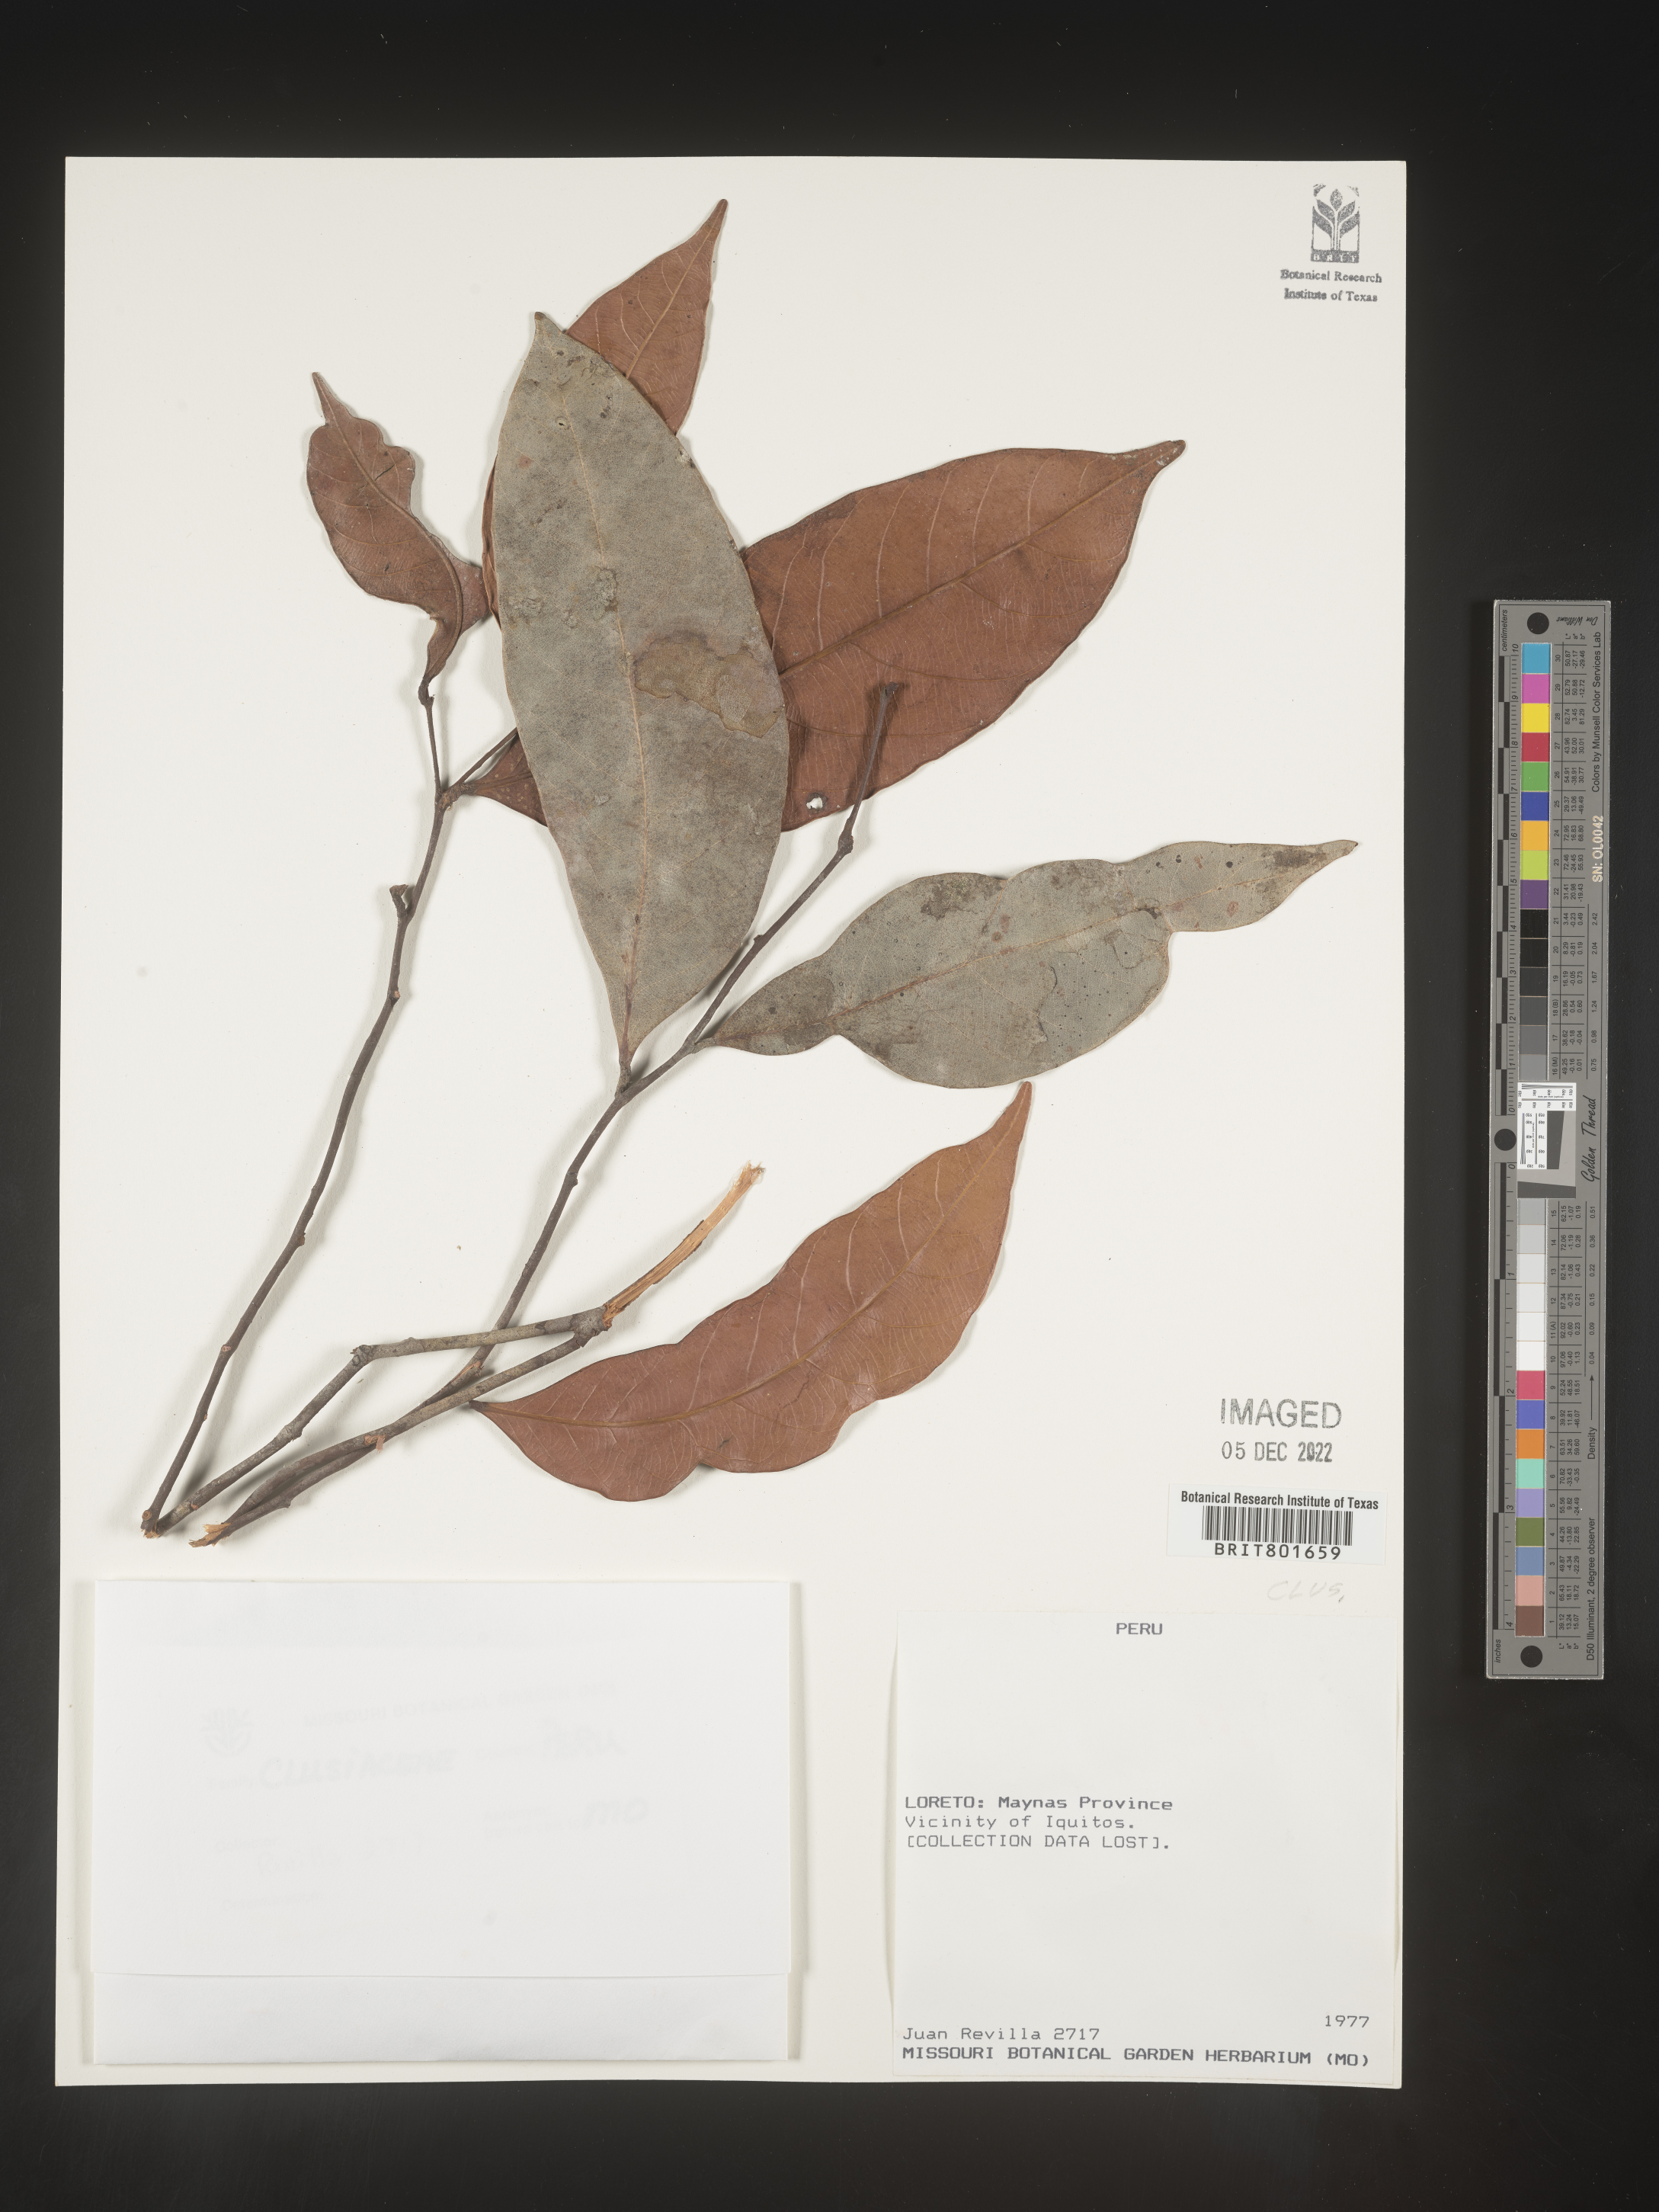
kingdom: Plantae
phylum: Tracheophyta
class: Magnoliopsida
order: Malpighiales
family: Clusiaceae
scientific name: Clusiaceae
